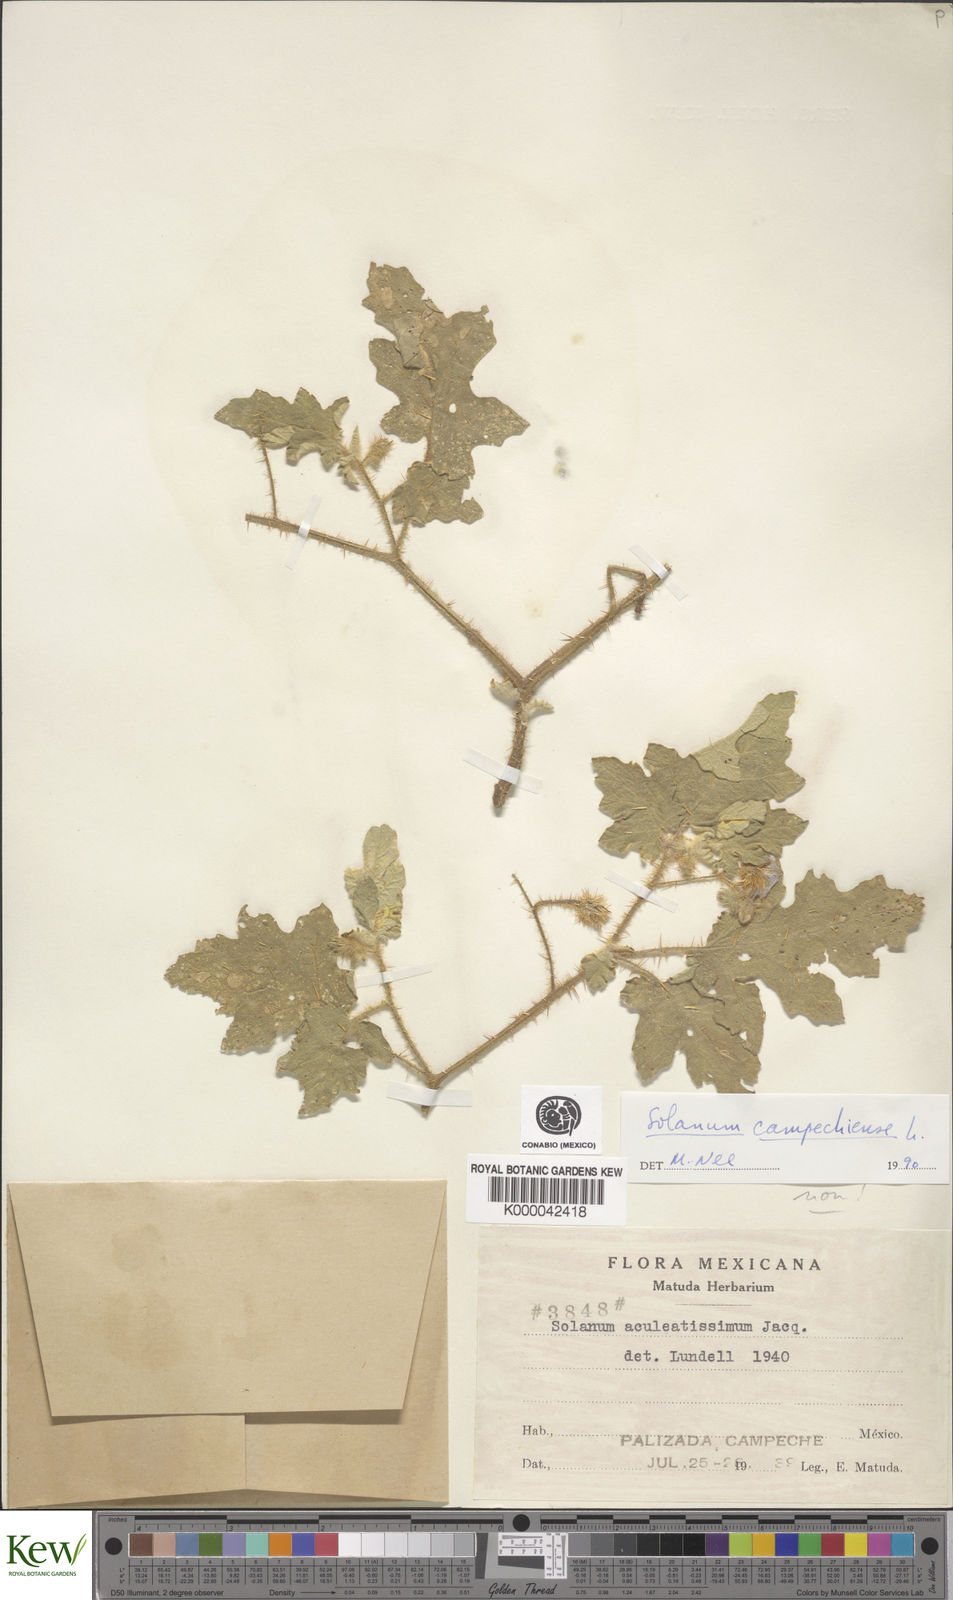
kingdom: Plantae
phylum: Tracheophyta
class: Magnoliopsida
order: Solanales
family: Solanaceae
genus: Solanum
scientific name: Solanum campechiense
